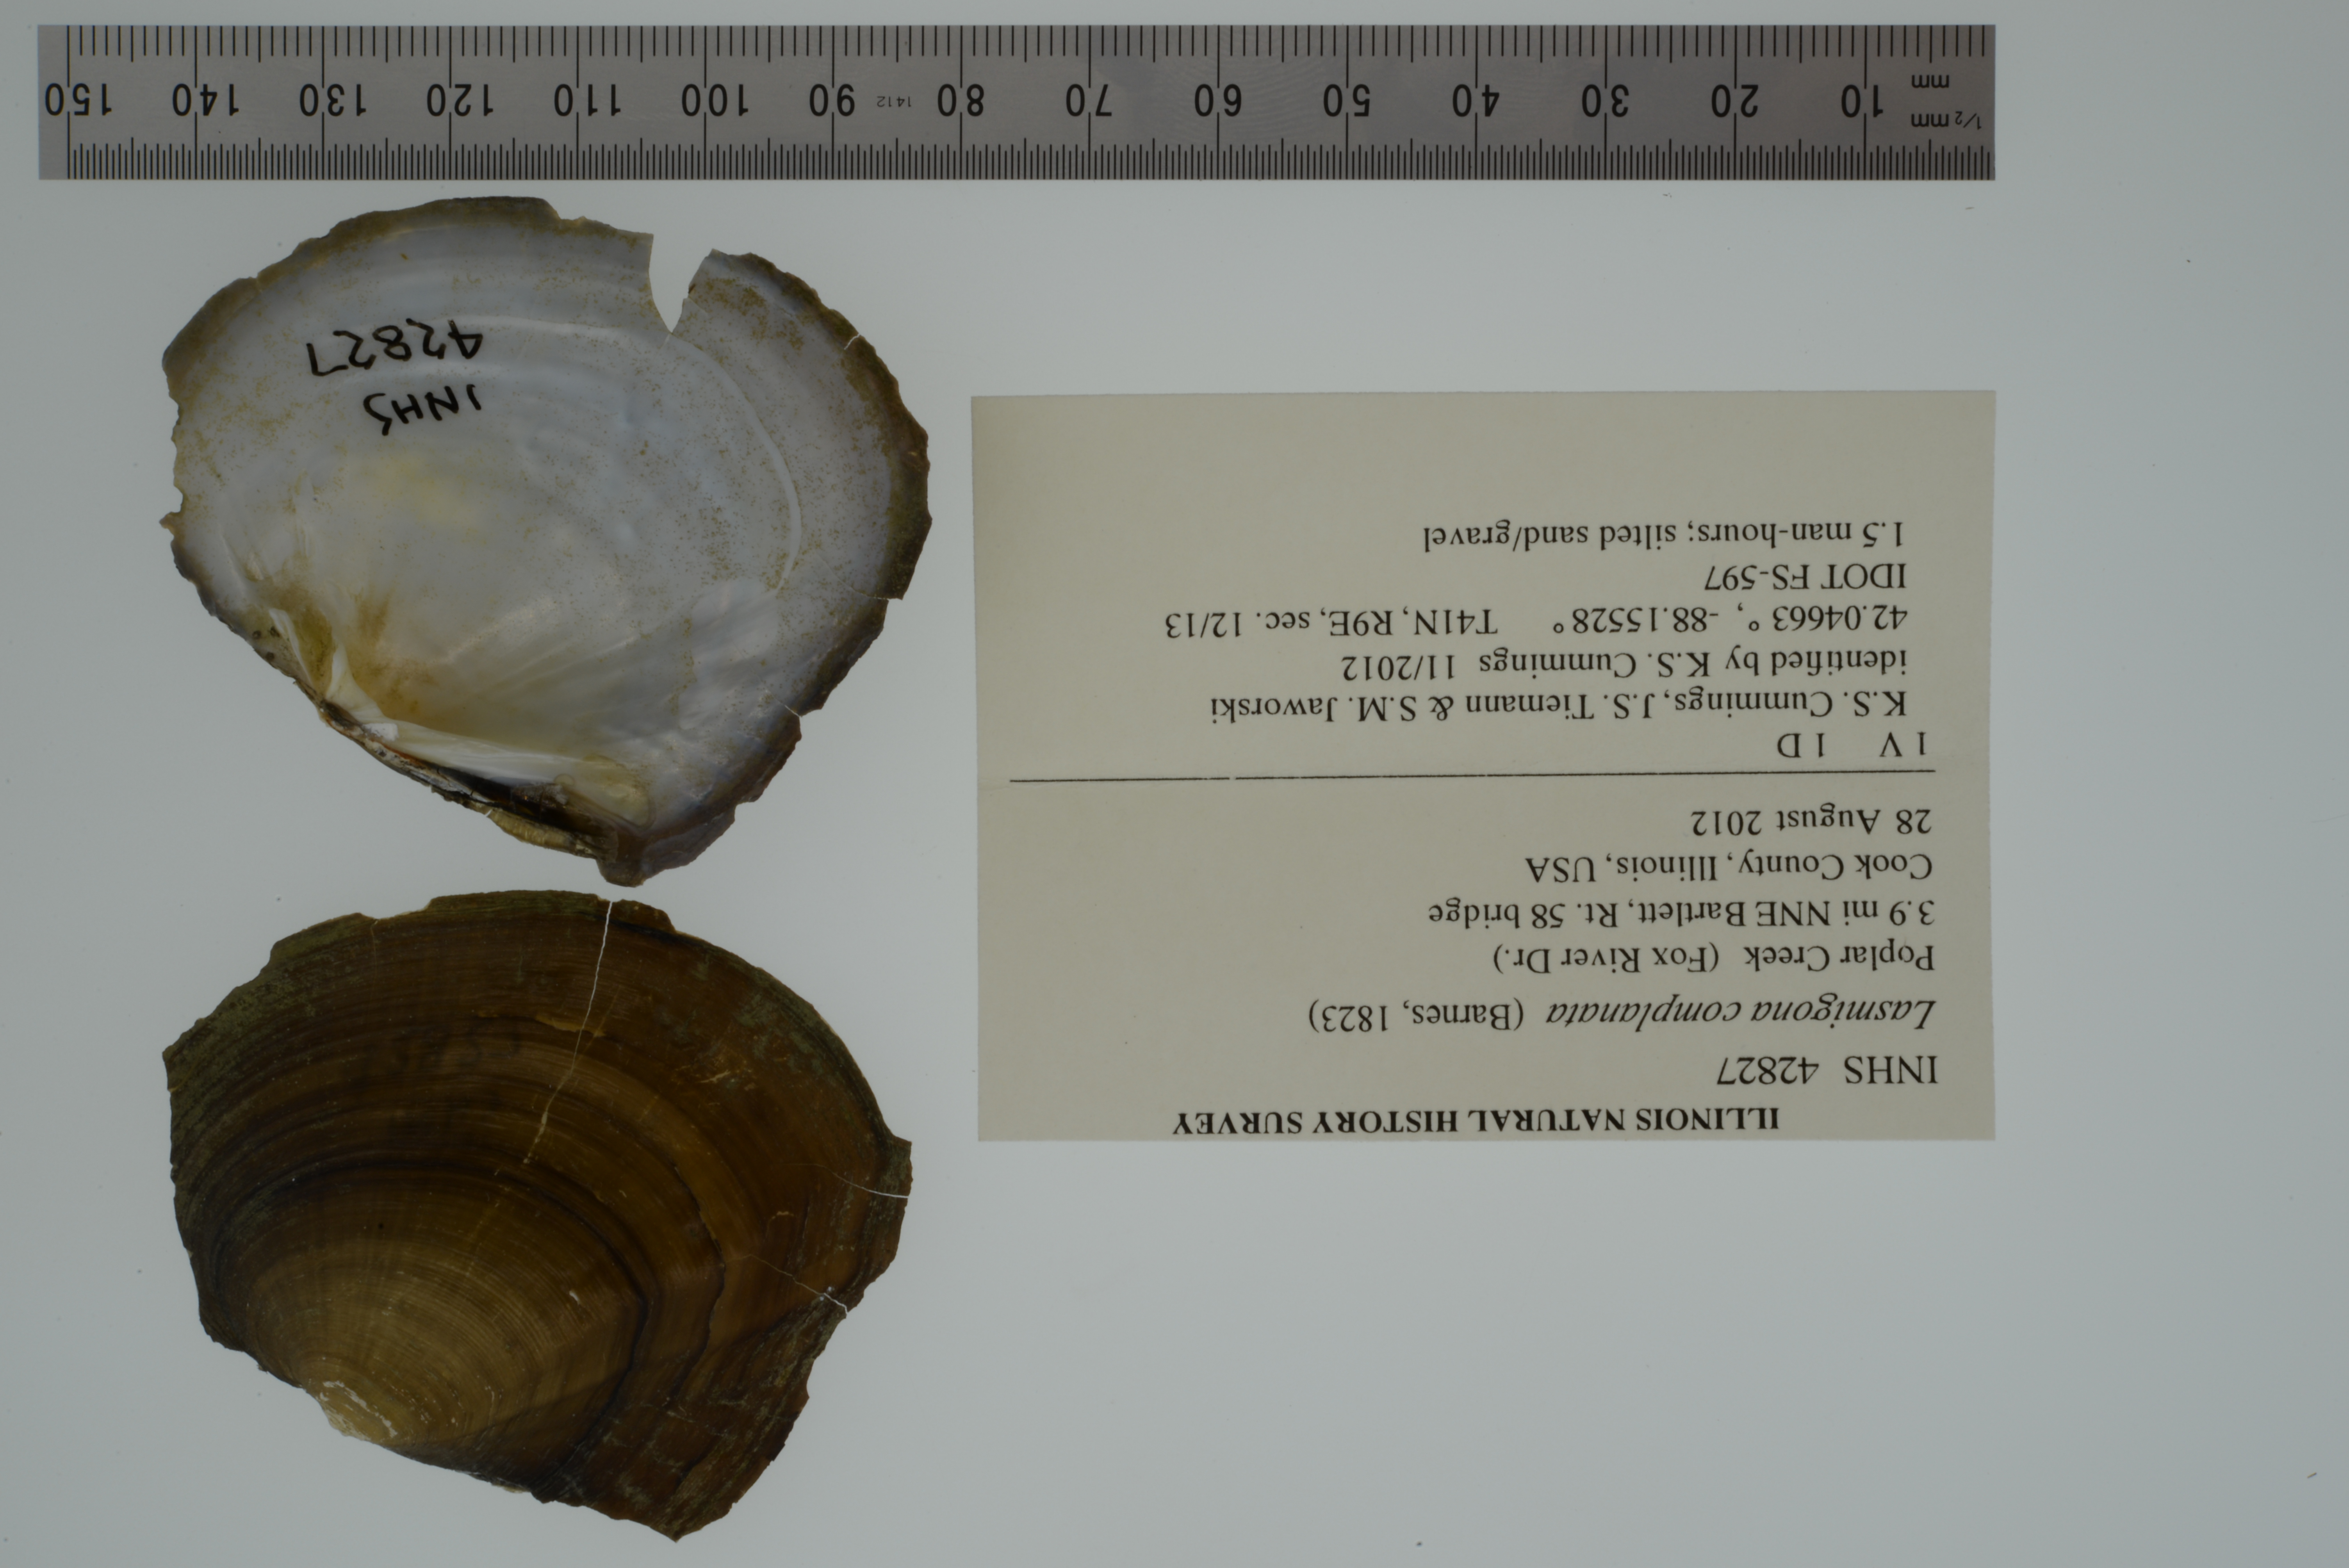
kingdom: Animalia
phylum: Mollusca
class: Bivalvia
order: Unionida
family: Unionidae
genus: Lasmigona
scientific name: Lasmigona complanata
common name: White heelsplitter
